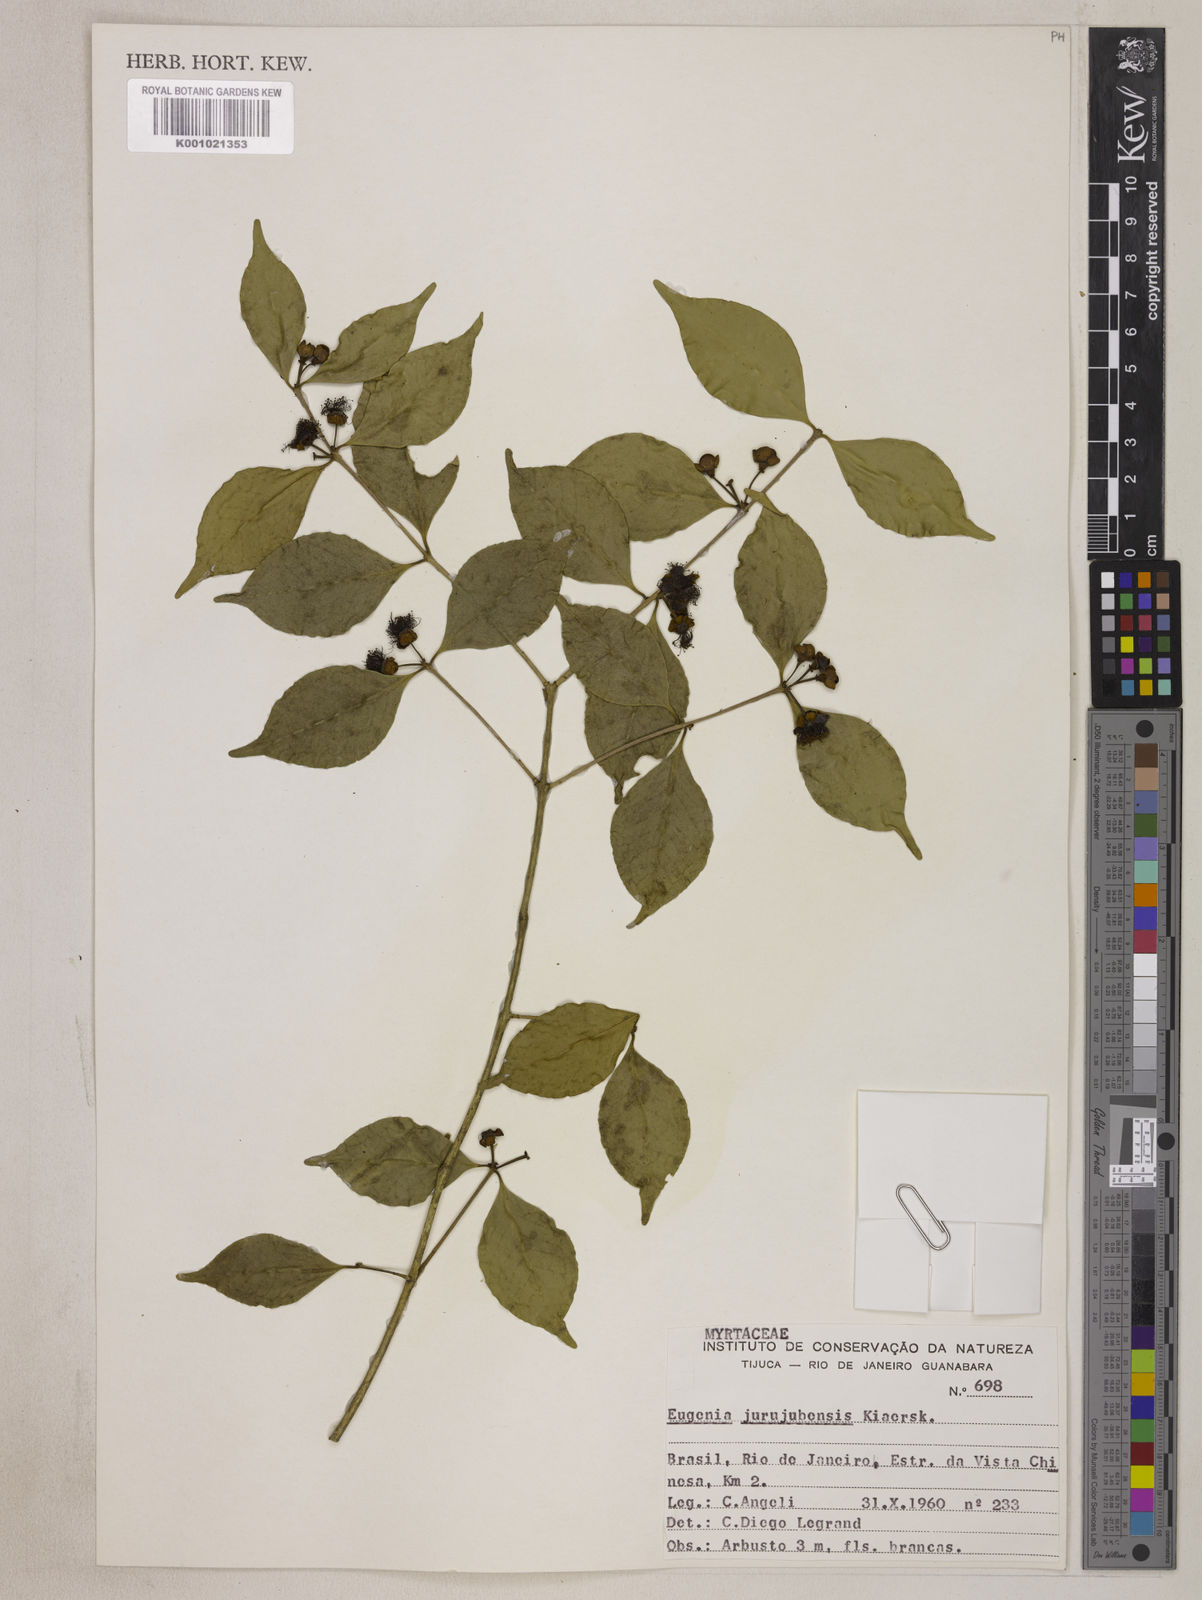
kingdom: Plantae
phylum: Tracheophyta
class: Magnoliopsida
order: Myrtales
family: Myrtaceae
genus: Eugenia
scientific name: Eugenia prasina
